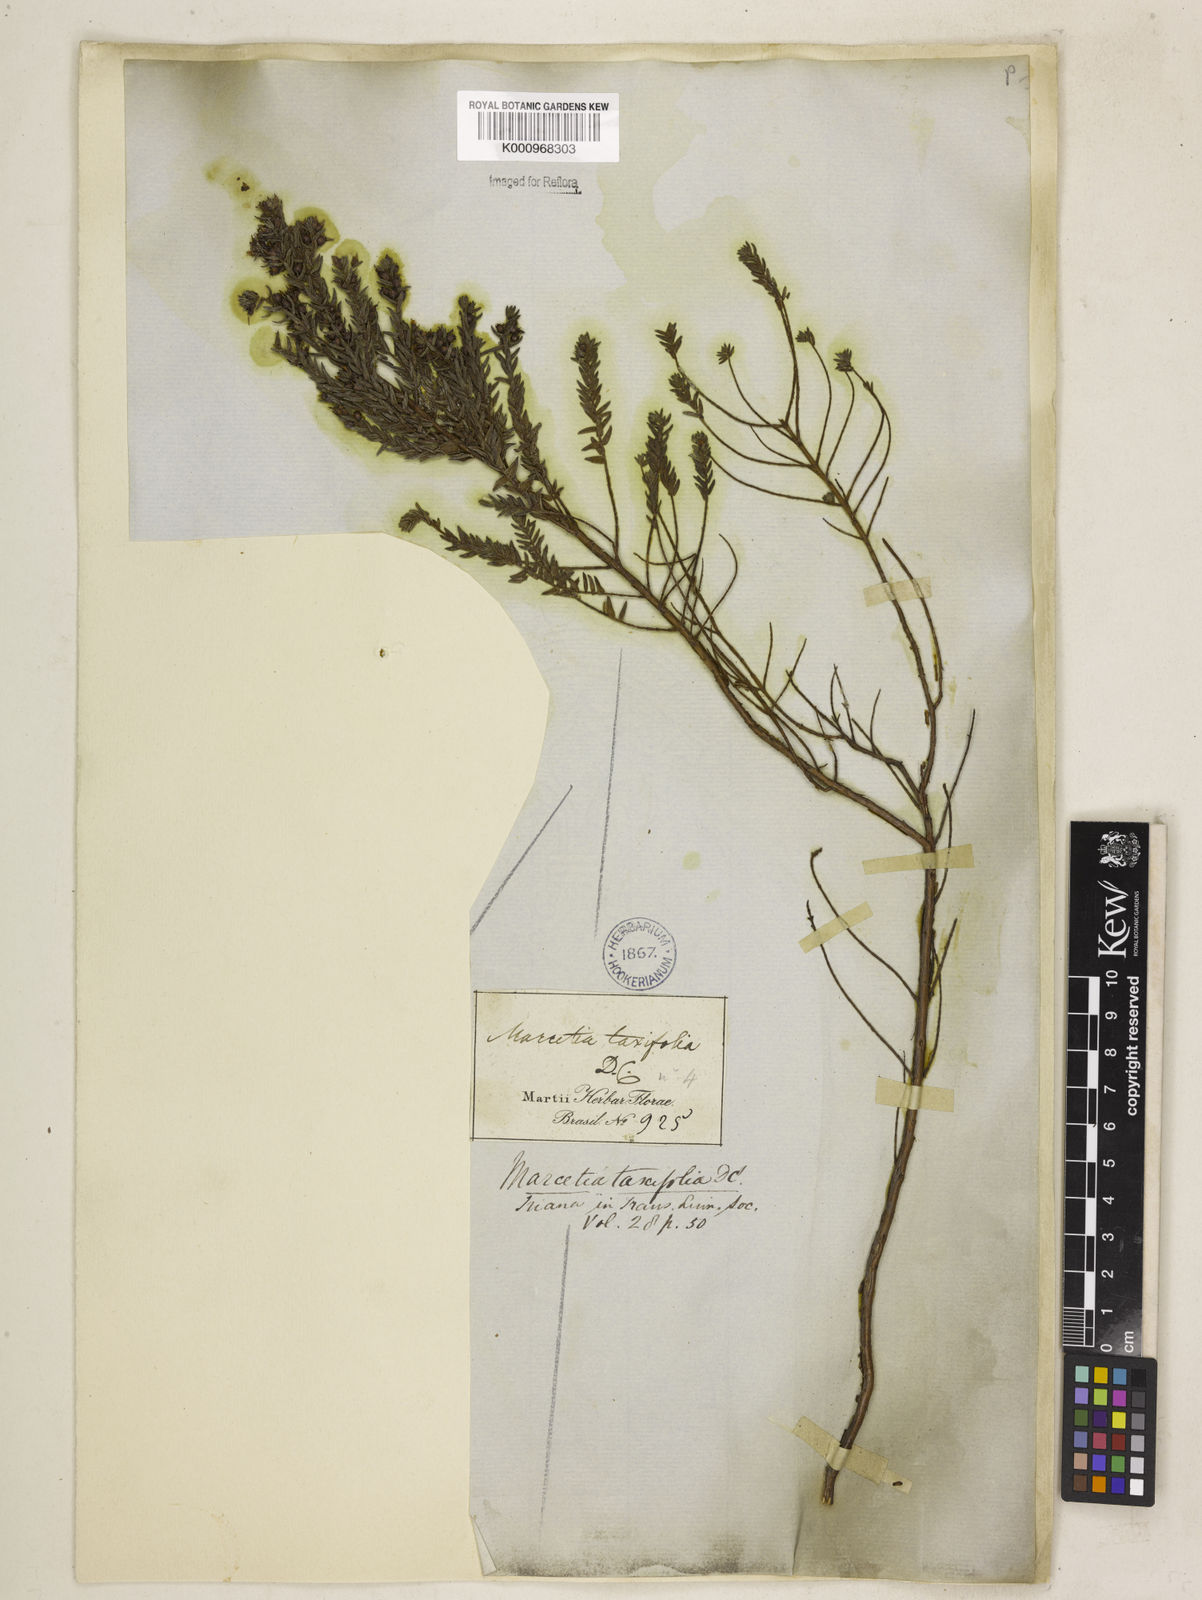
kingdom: Plantae
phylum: Tracheophyta
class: Magnoliopsida
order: Myrtales
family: Melastomataceae
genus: Marcetia
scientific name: Marcetia taxifolia
